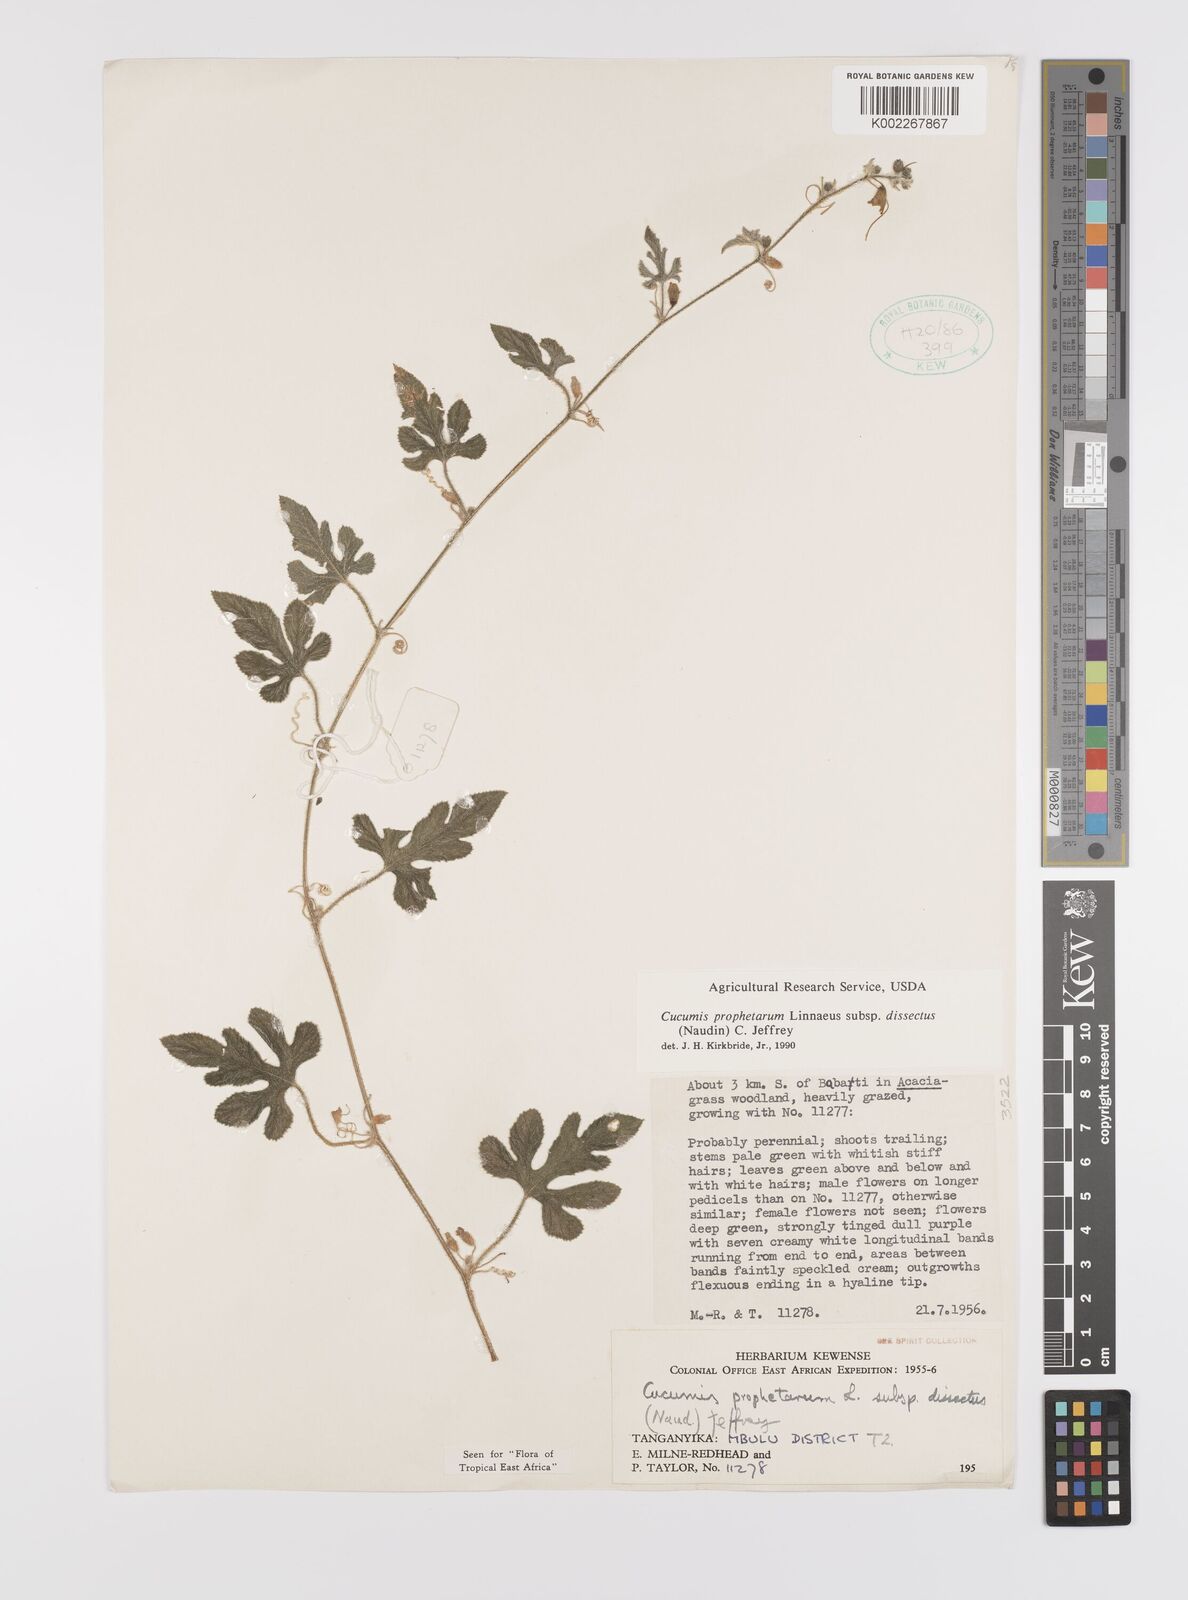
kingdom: Plantae
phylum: Tracheophyta
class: Magnoliopsida
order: Cucurbitales
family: Cucurbitaceae
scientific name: Cucurbitaceae
